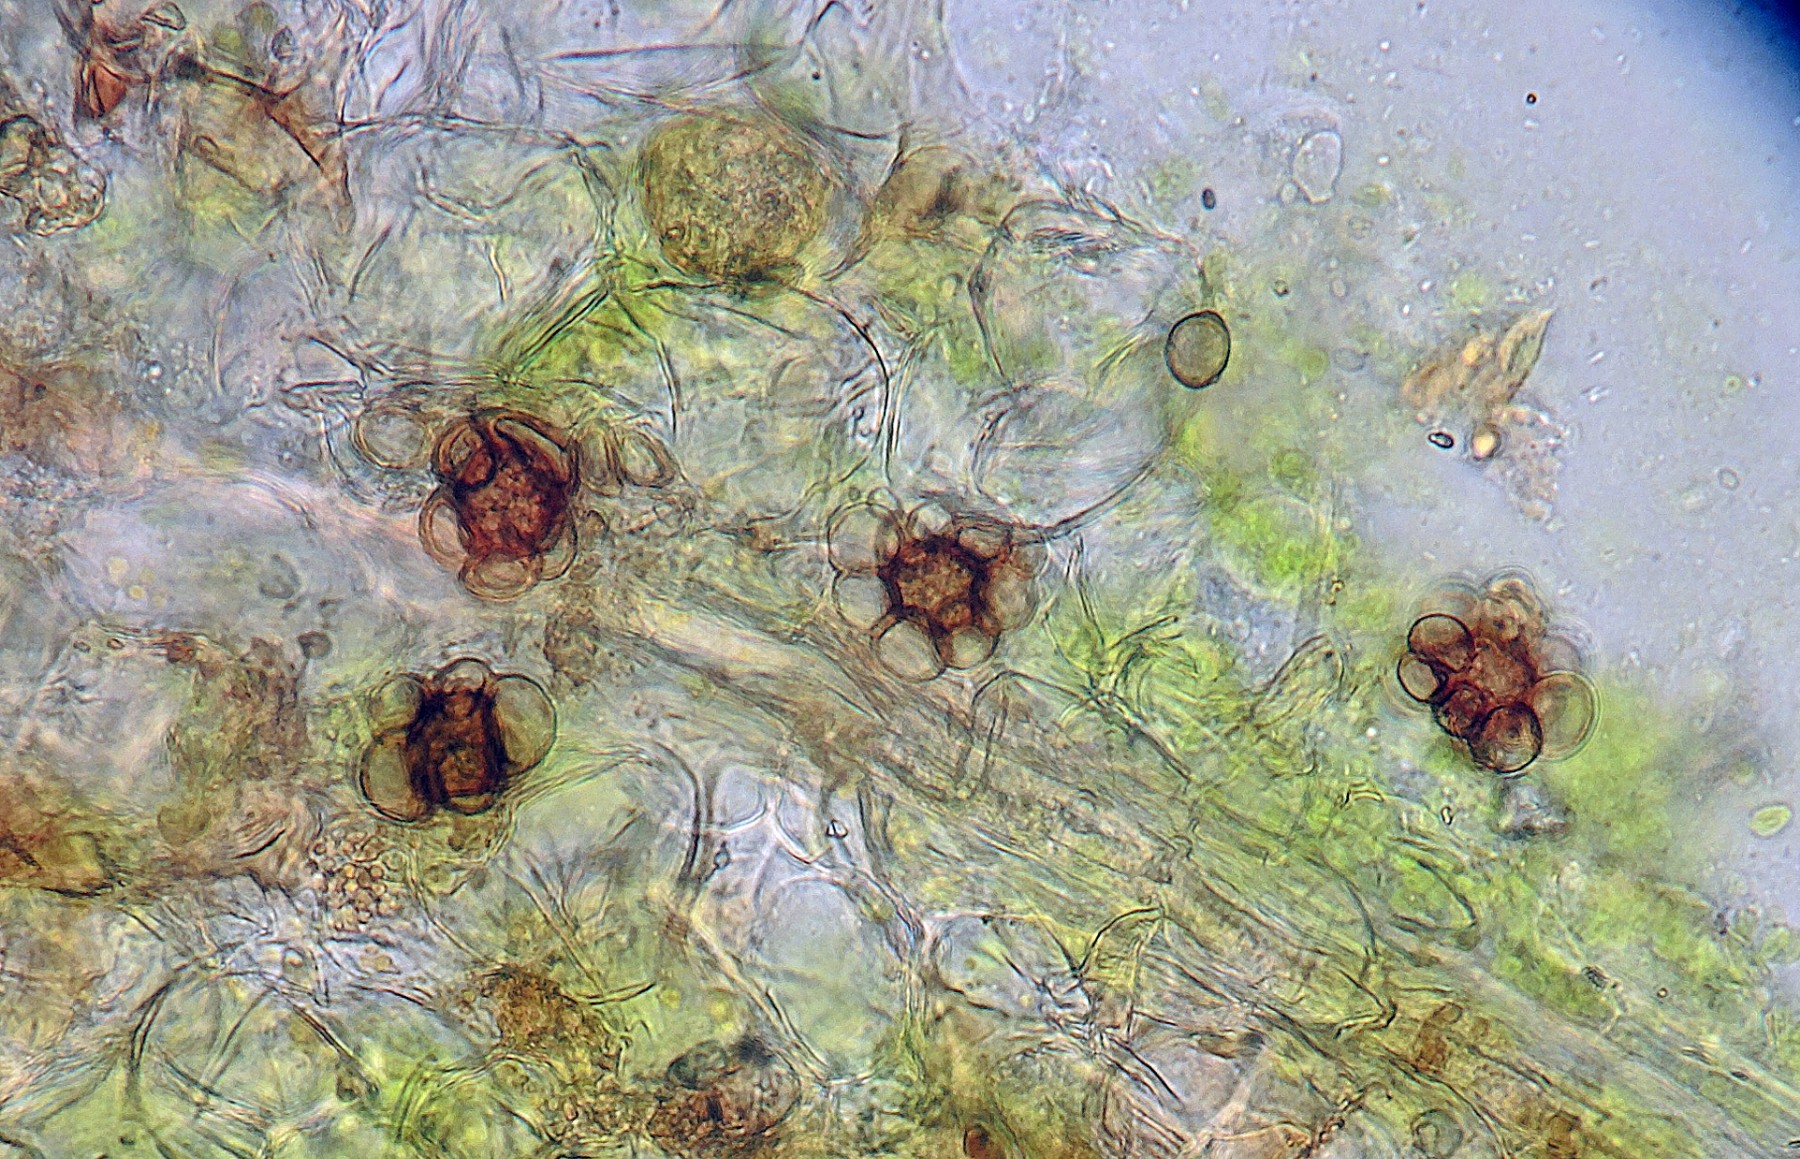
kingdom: Fungi
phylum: Basidiomycota
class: Ustilaginomycetes
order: Urocystidales
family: Urocystidaceae
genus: Urocystis
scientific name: Urocystis
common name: brandsvamp
